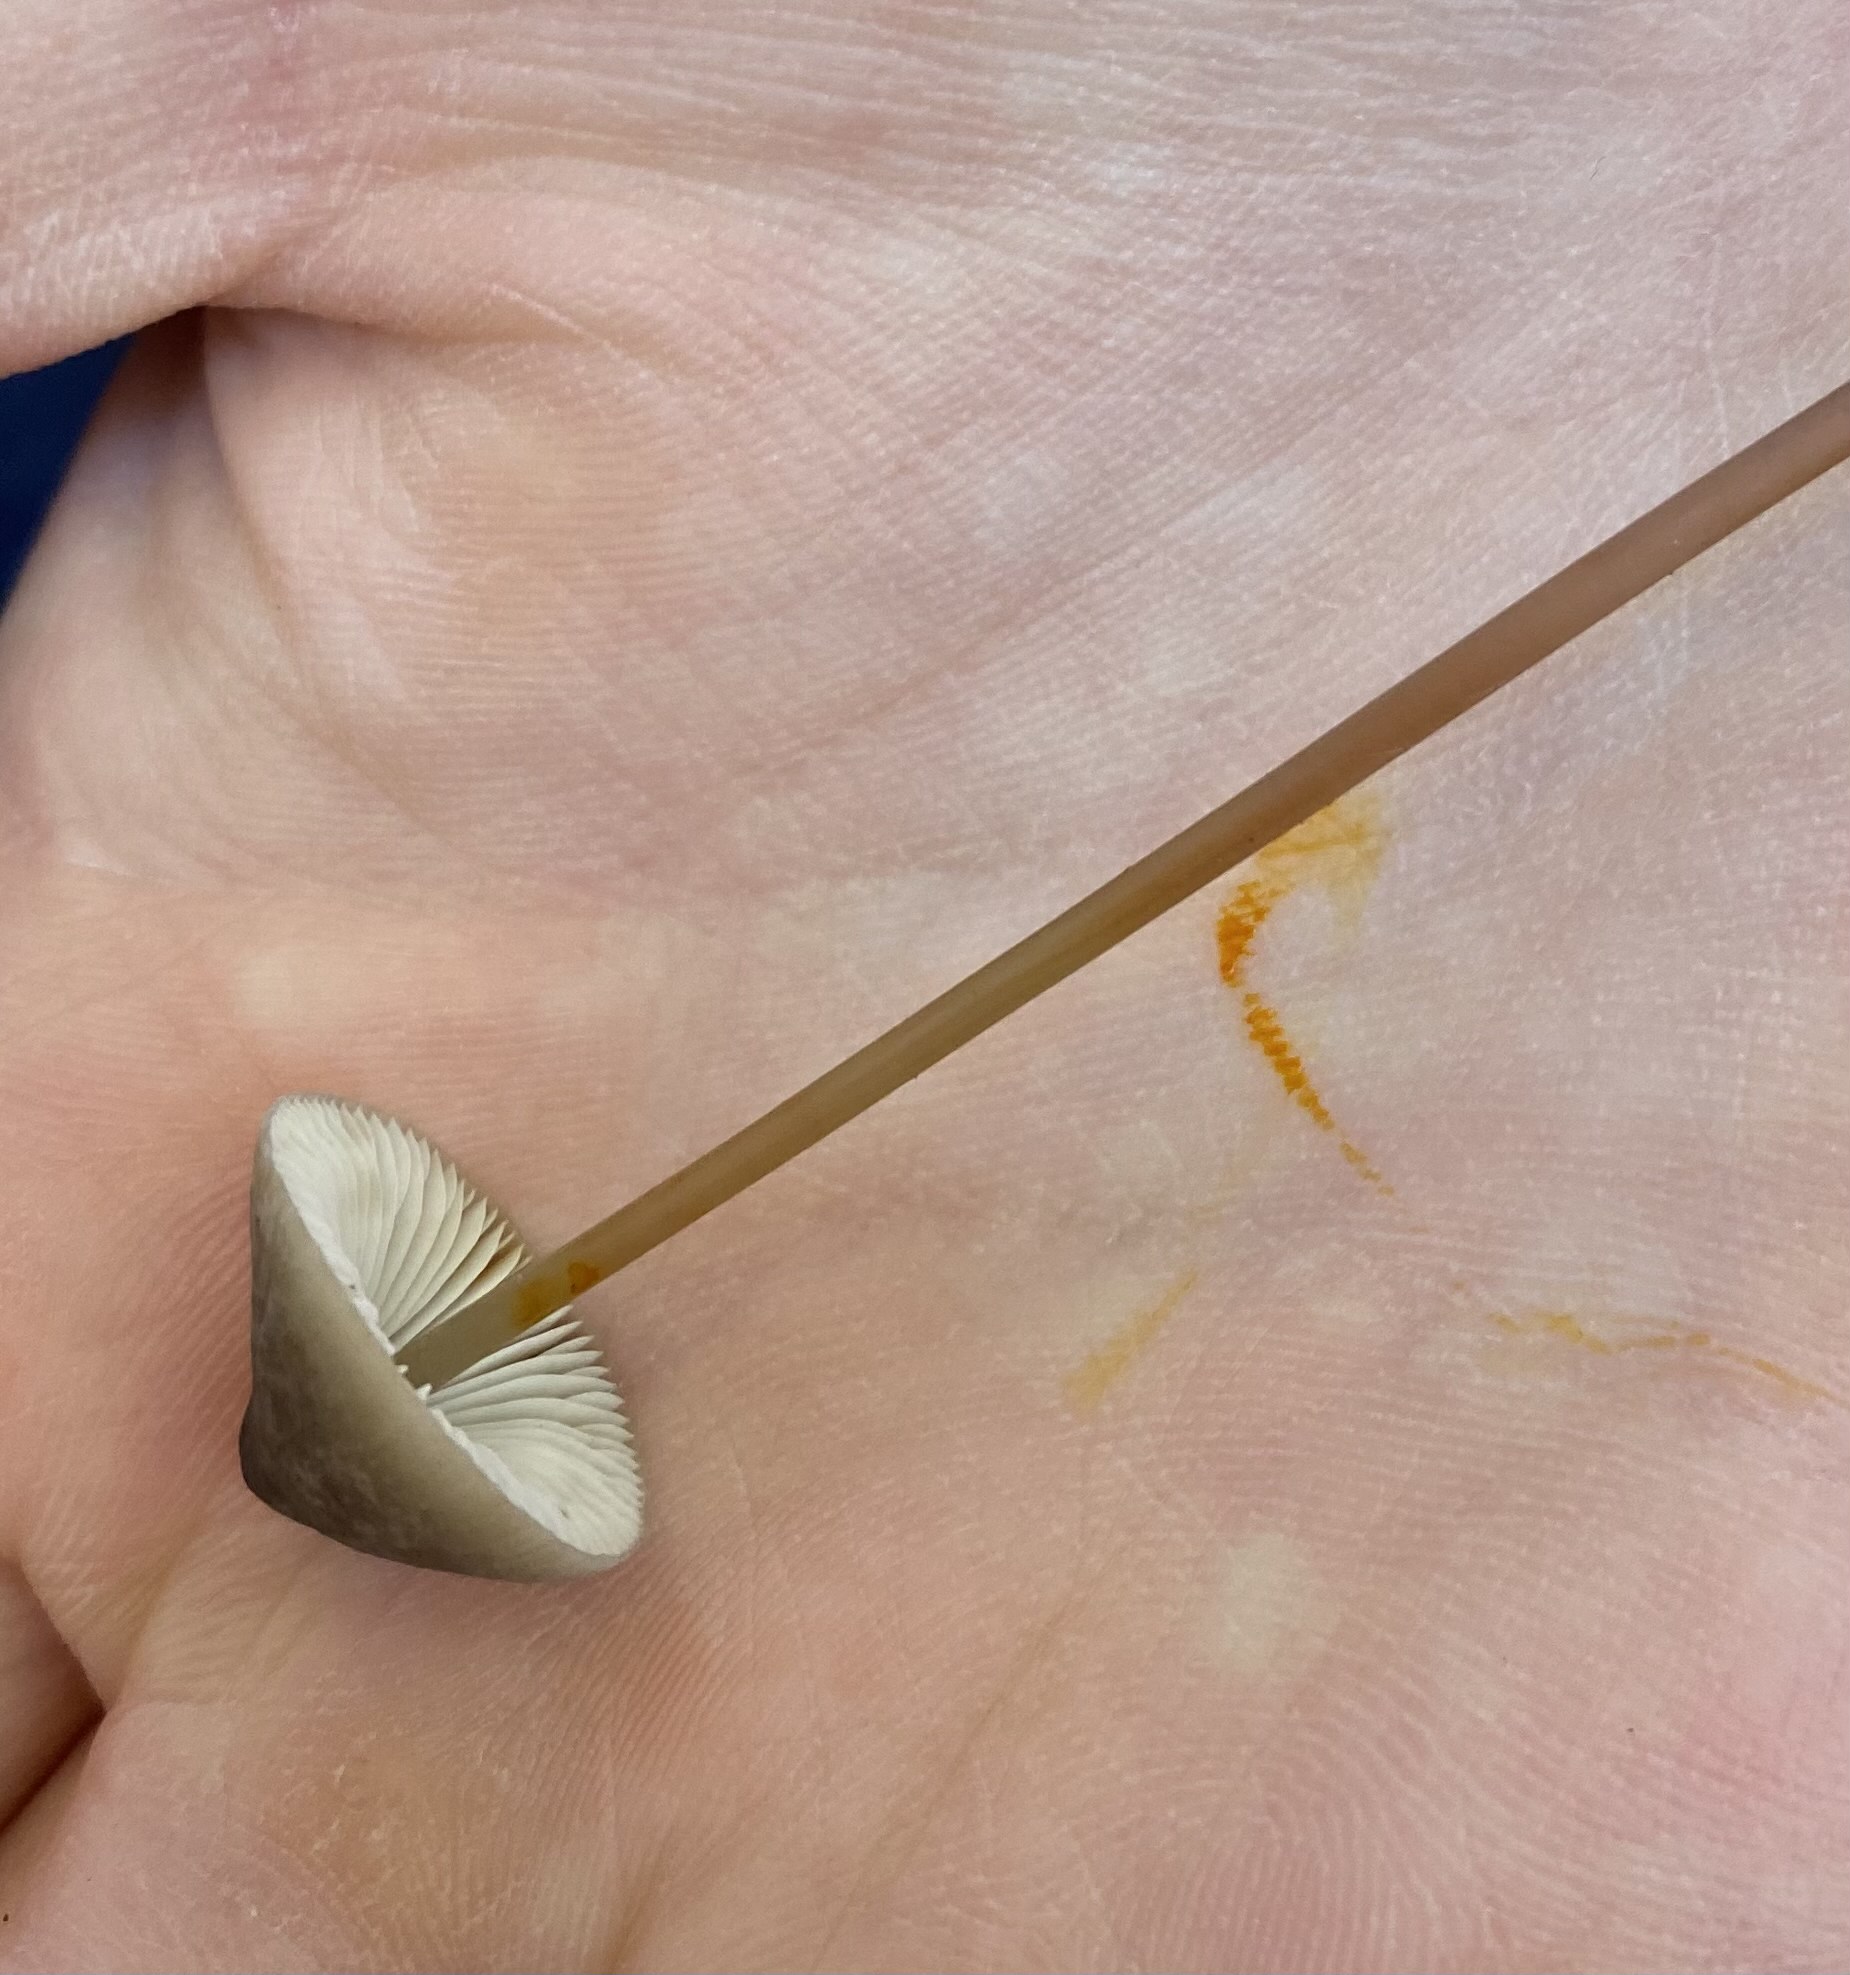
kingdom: Fungi
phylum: Basidiomycota
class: Agaricomycetes
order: Agaricales
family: Mycenaceae
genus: Mycena
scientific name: Mycena crocata
